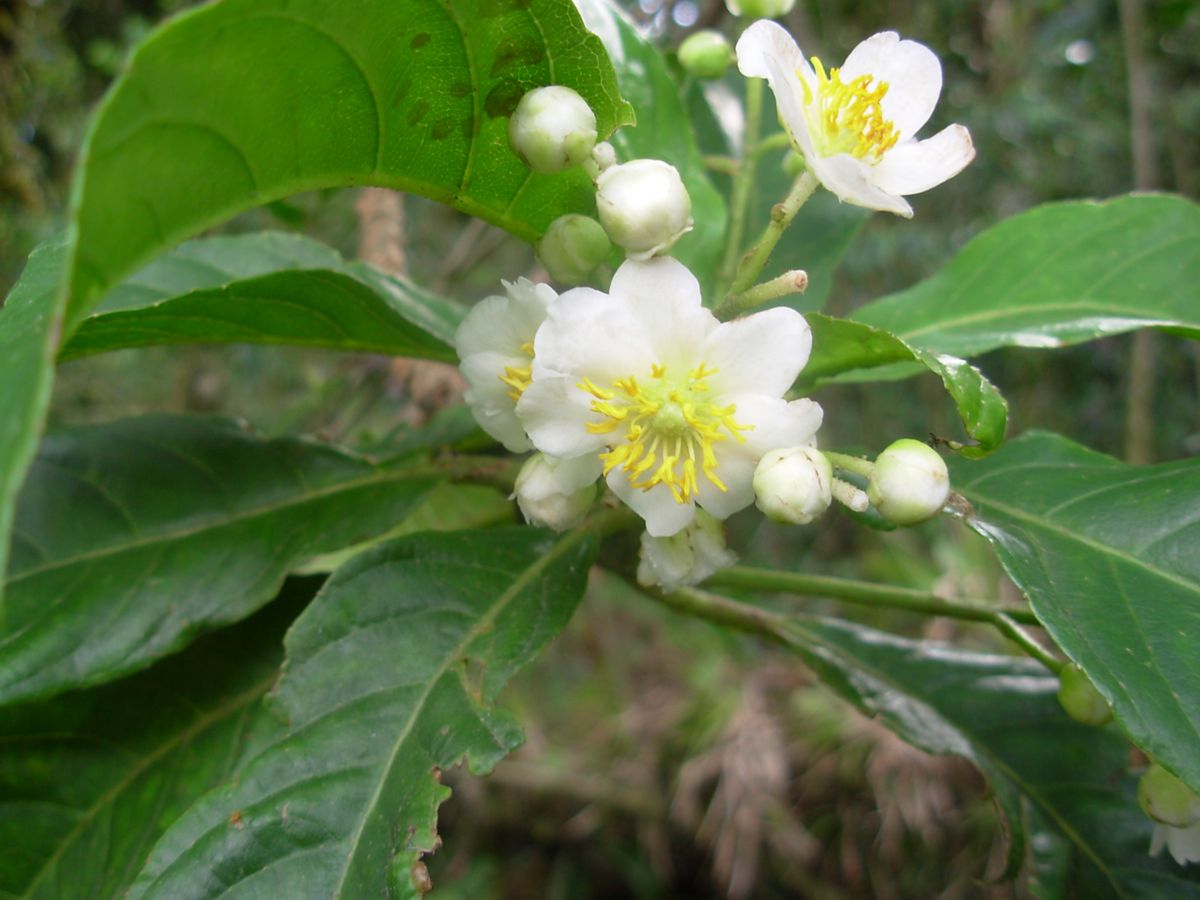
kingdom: Plantae
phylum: Tracheophyta
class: Magnoliopsida
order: Ericales
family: Actinidiaceae
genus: Saurauia
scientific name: Saurauia kegeliana
